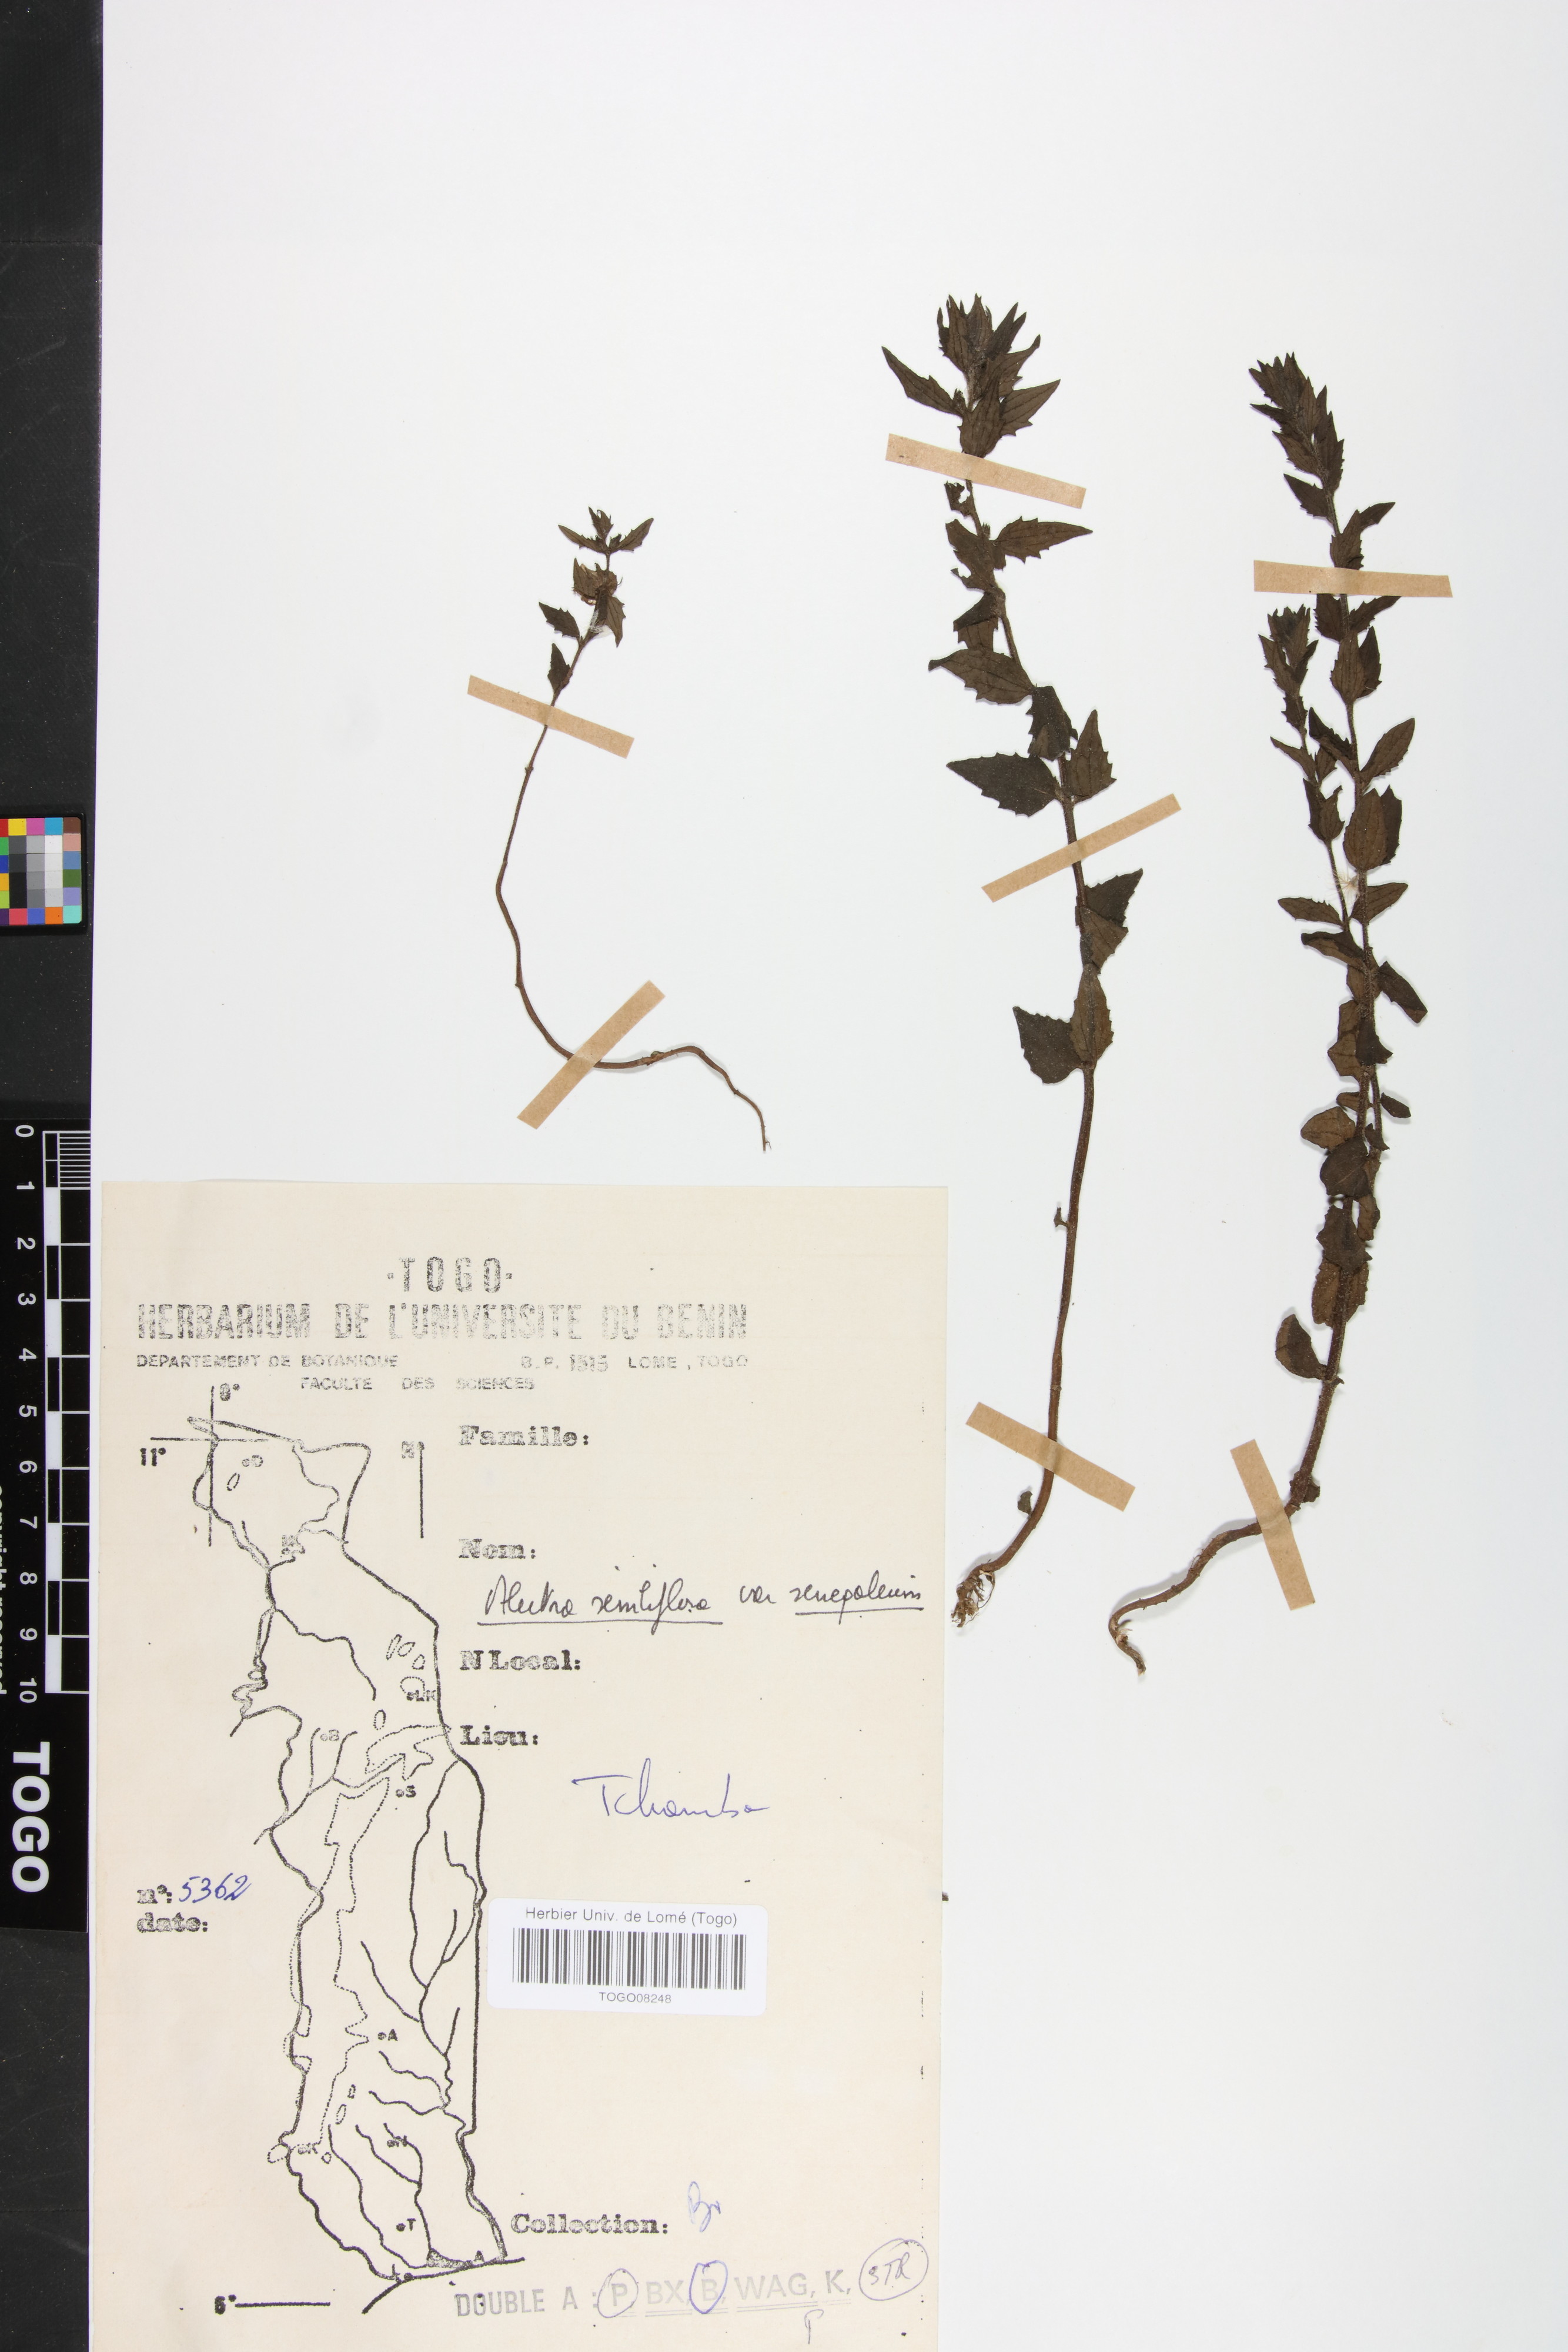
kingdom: Plantae
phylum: Tracheophyta
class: Magnoliopsida
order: Lamiales
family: Orobanchaceae
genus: Alectra
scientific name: Alectra sessiliflora
